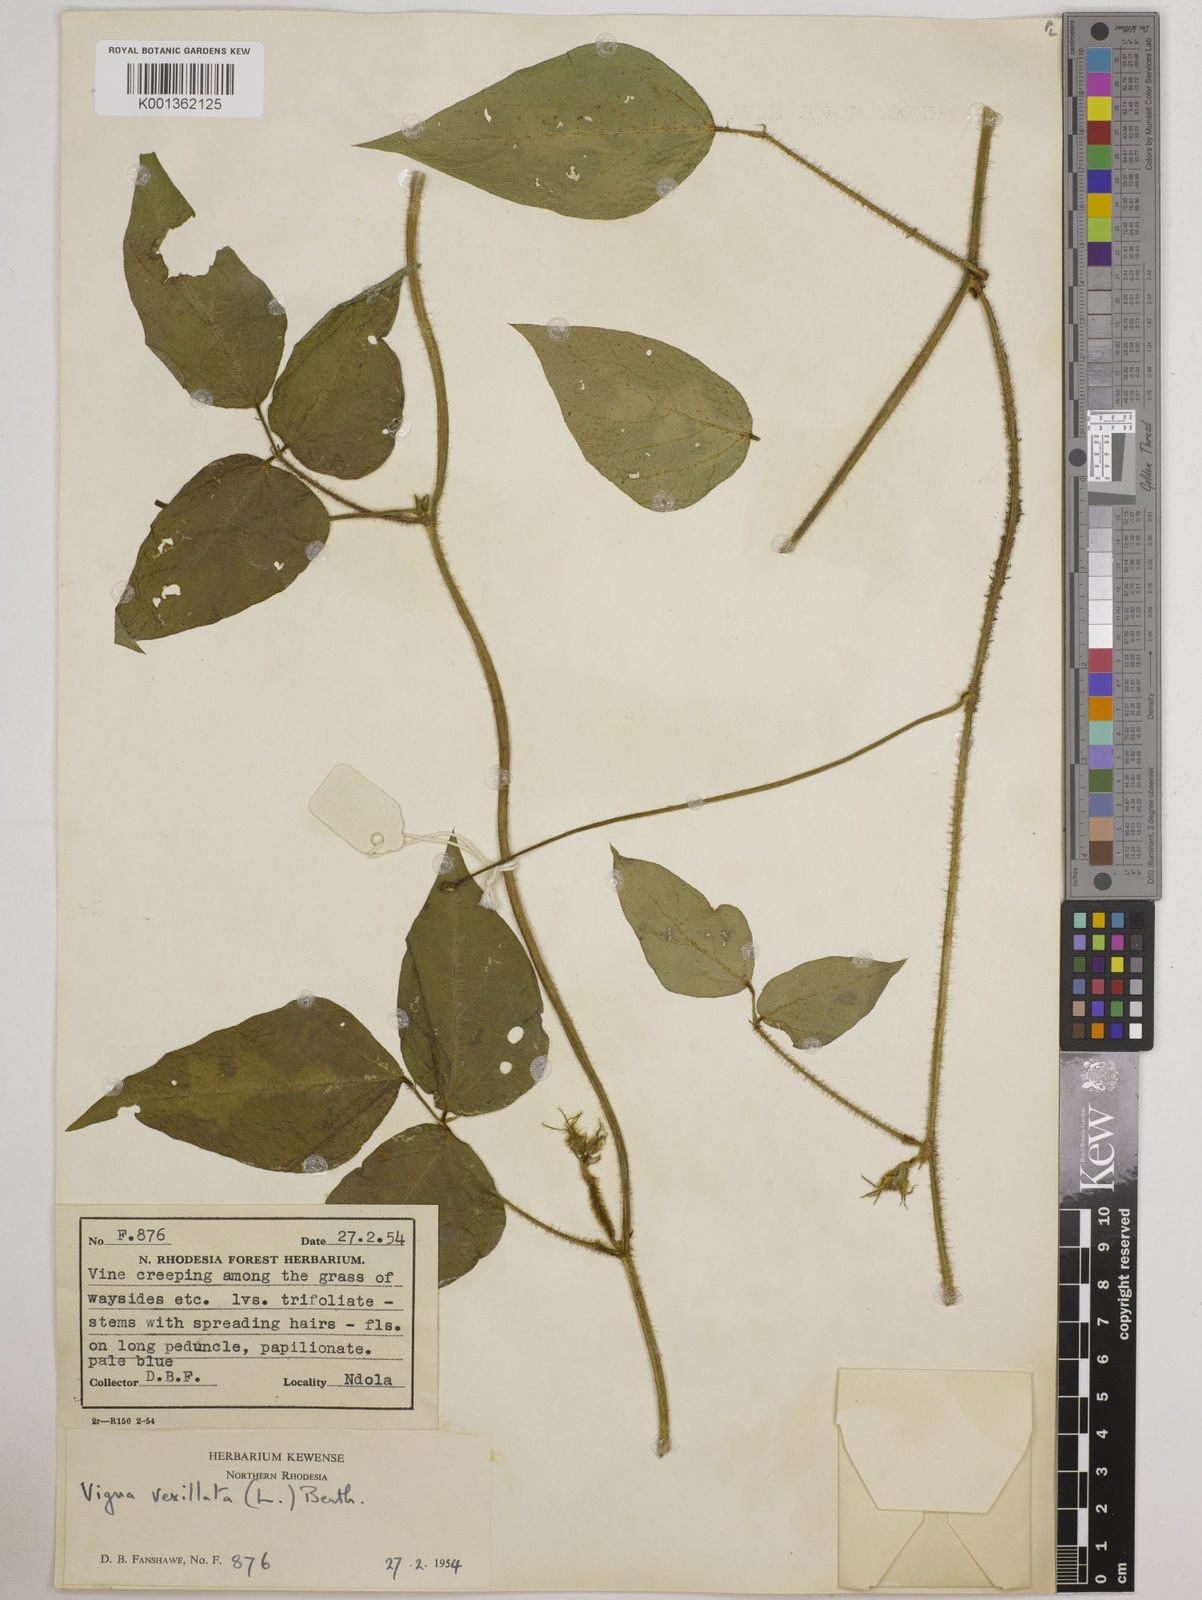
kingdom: Plantae
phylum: Tracheophyta
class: Magnoliopsida
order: Fabales
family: Fabaceae
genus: Vigna
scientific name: Vigna vexillata
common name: Zombi pea
